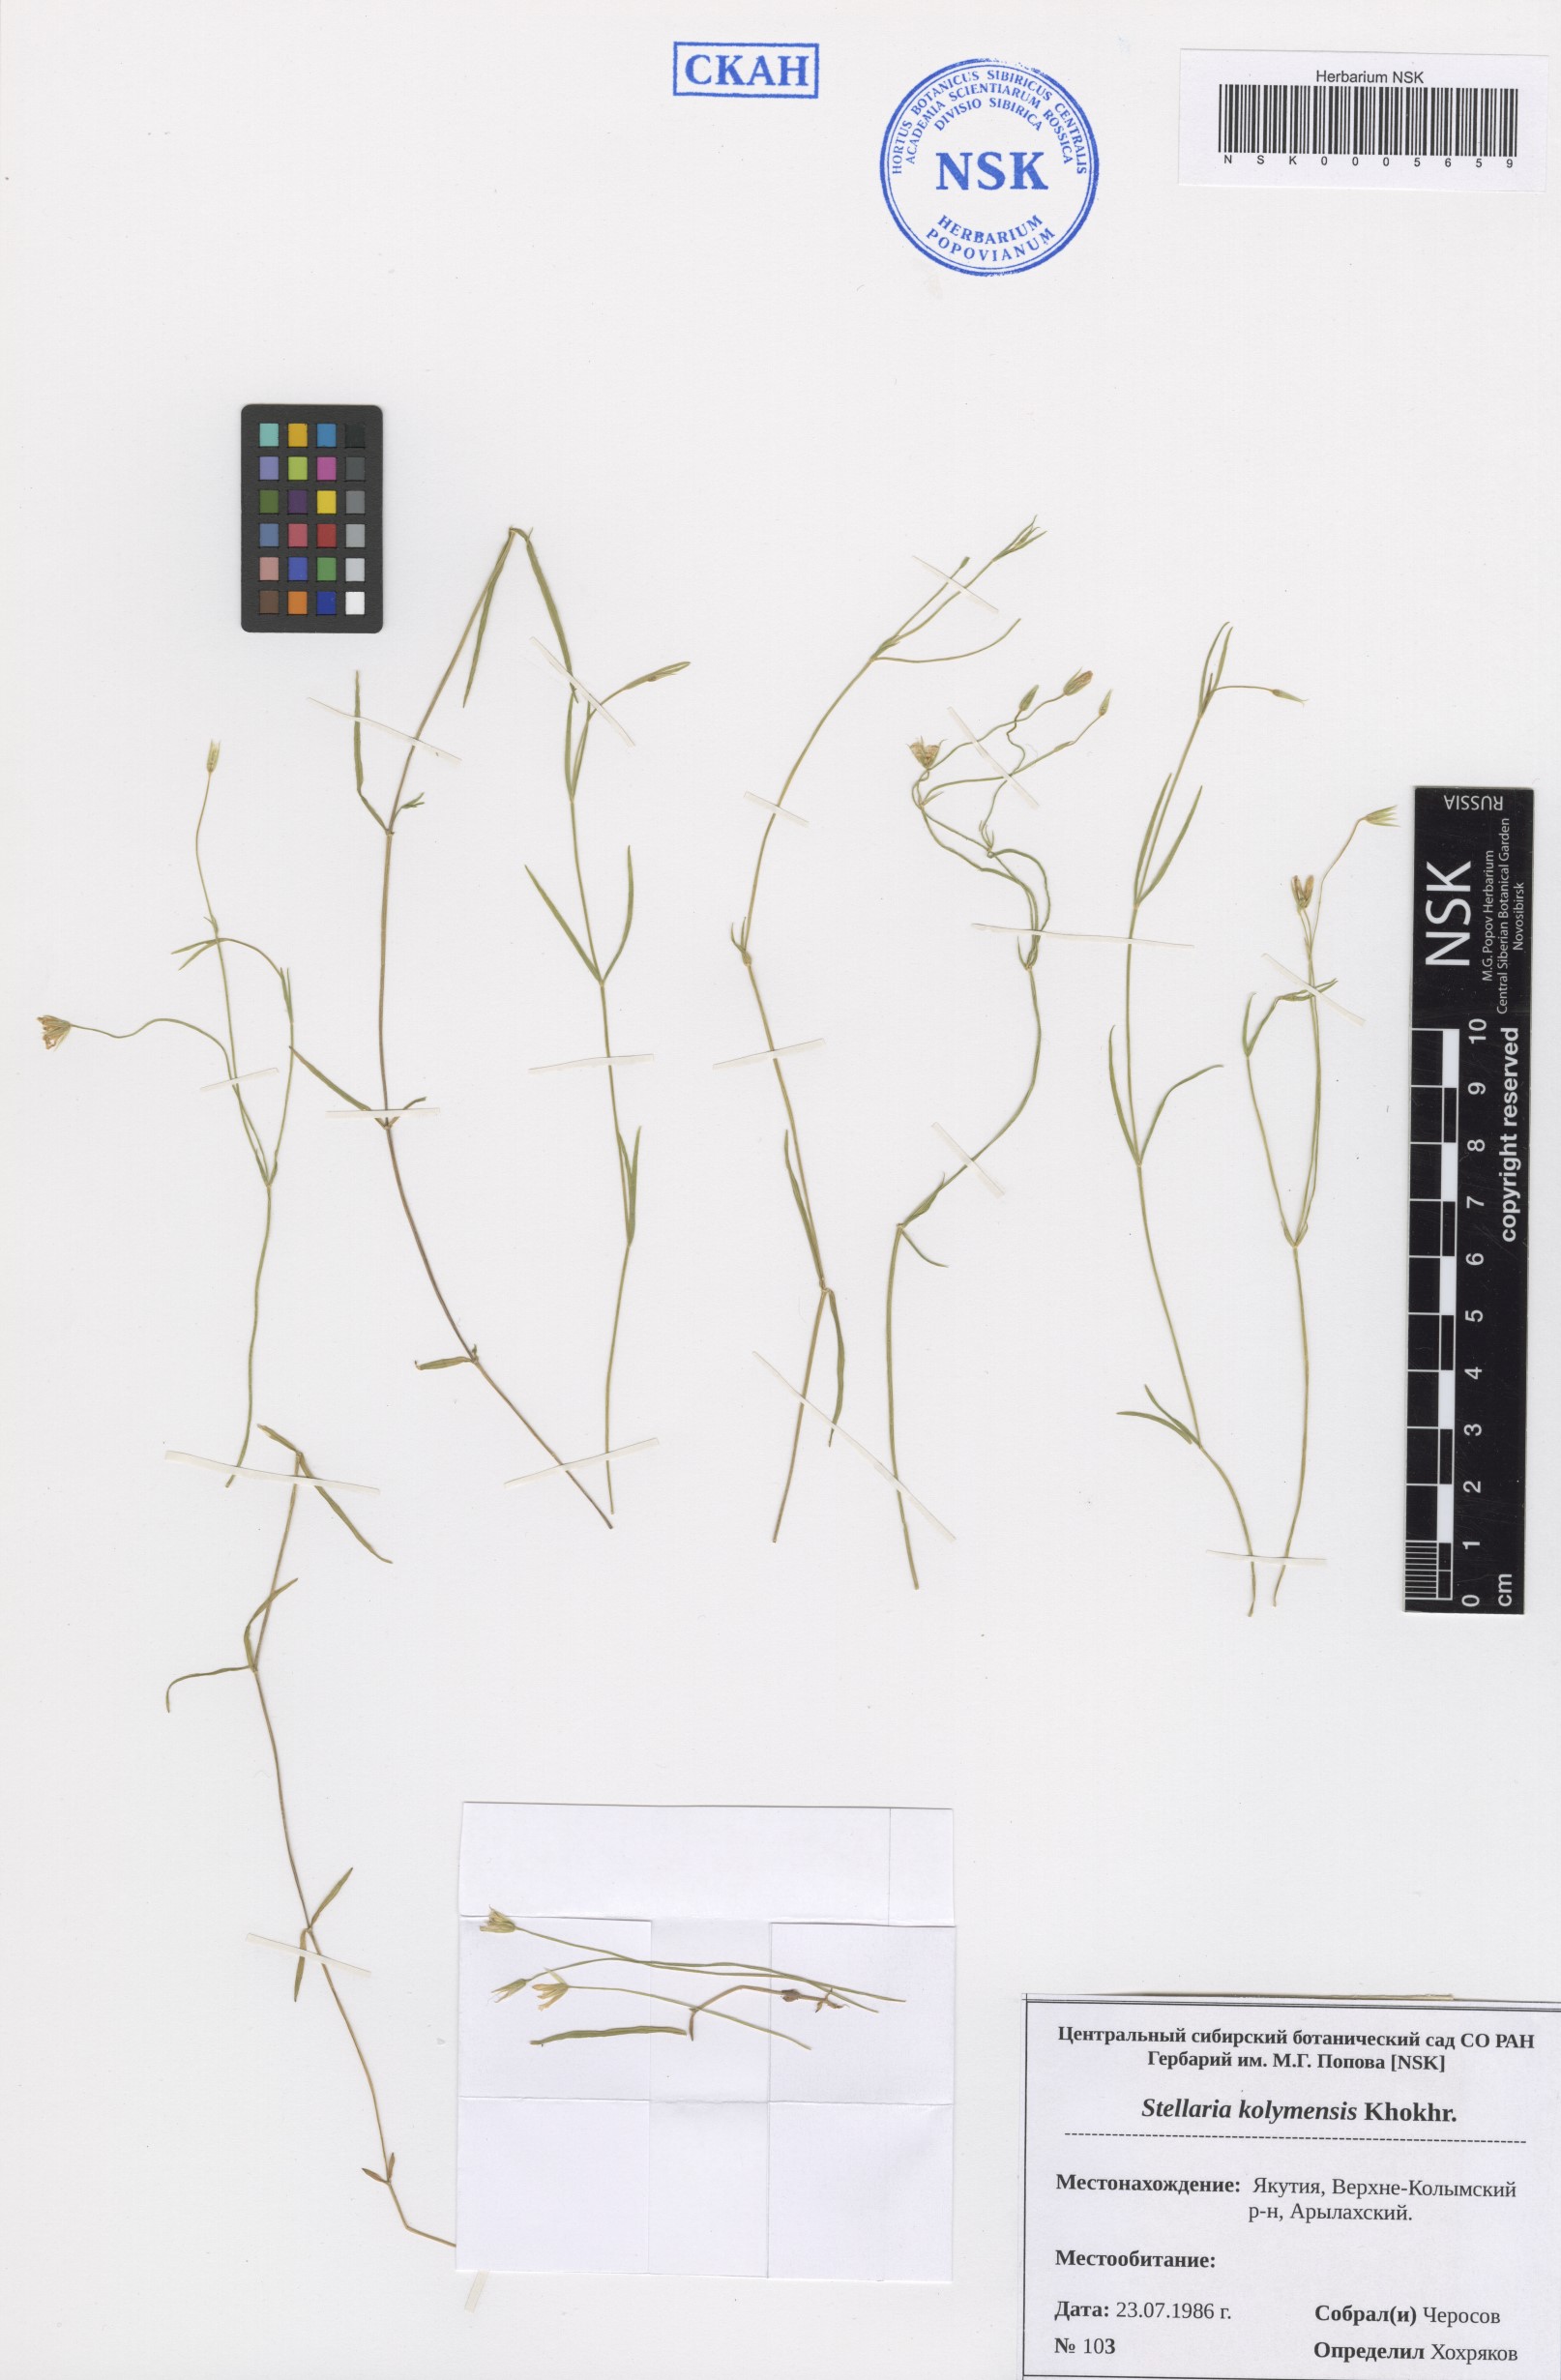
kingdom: Plantae
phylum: Tracheophyta
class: Magnoliopsida
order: Caryophyllales
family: Caryophyllaceae
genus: Stellaria
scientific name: Stellaria kolymensis
